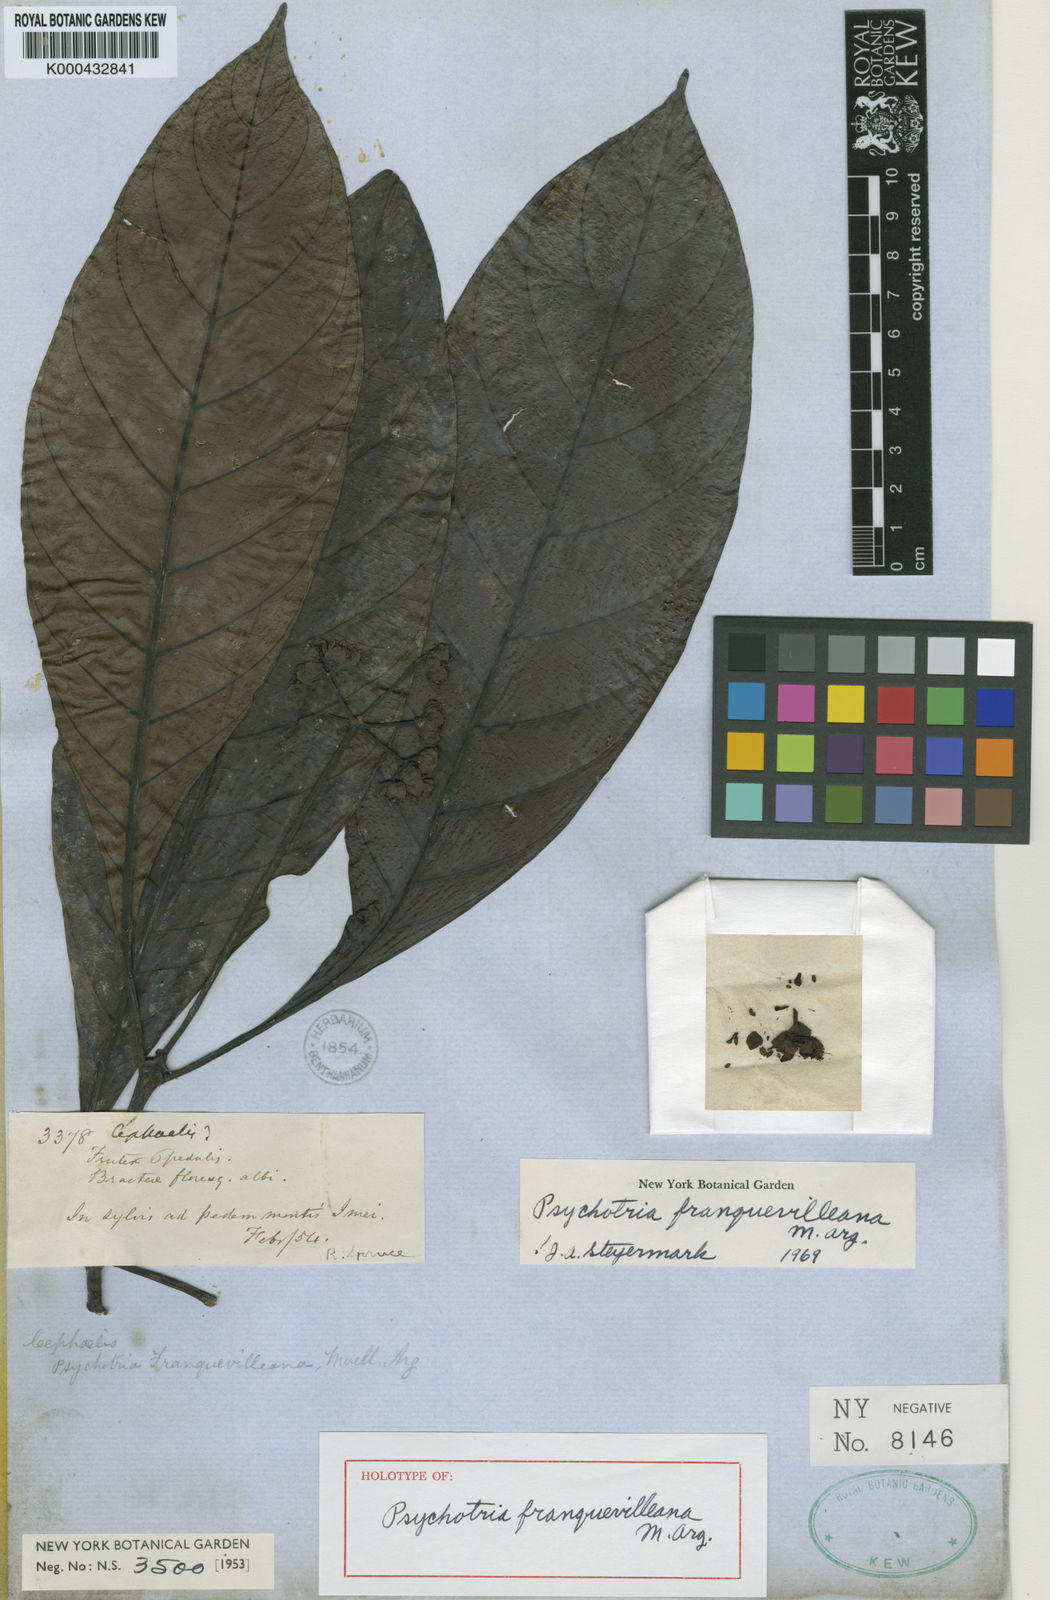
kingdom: Plantae
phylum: Tracheophyta
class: Magnoliopsida
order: Gentianales
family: Rubiaceae
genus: Carapichea
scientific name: Carapichea
